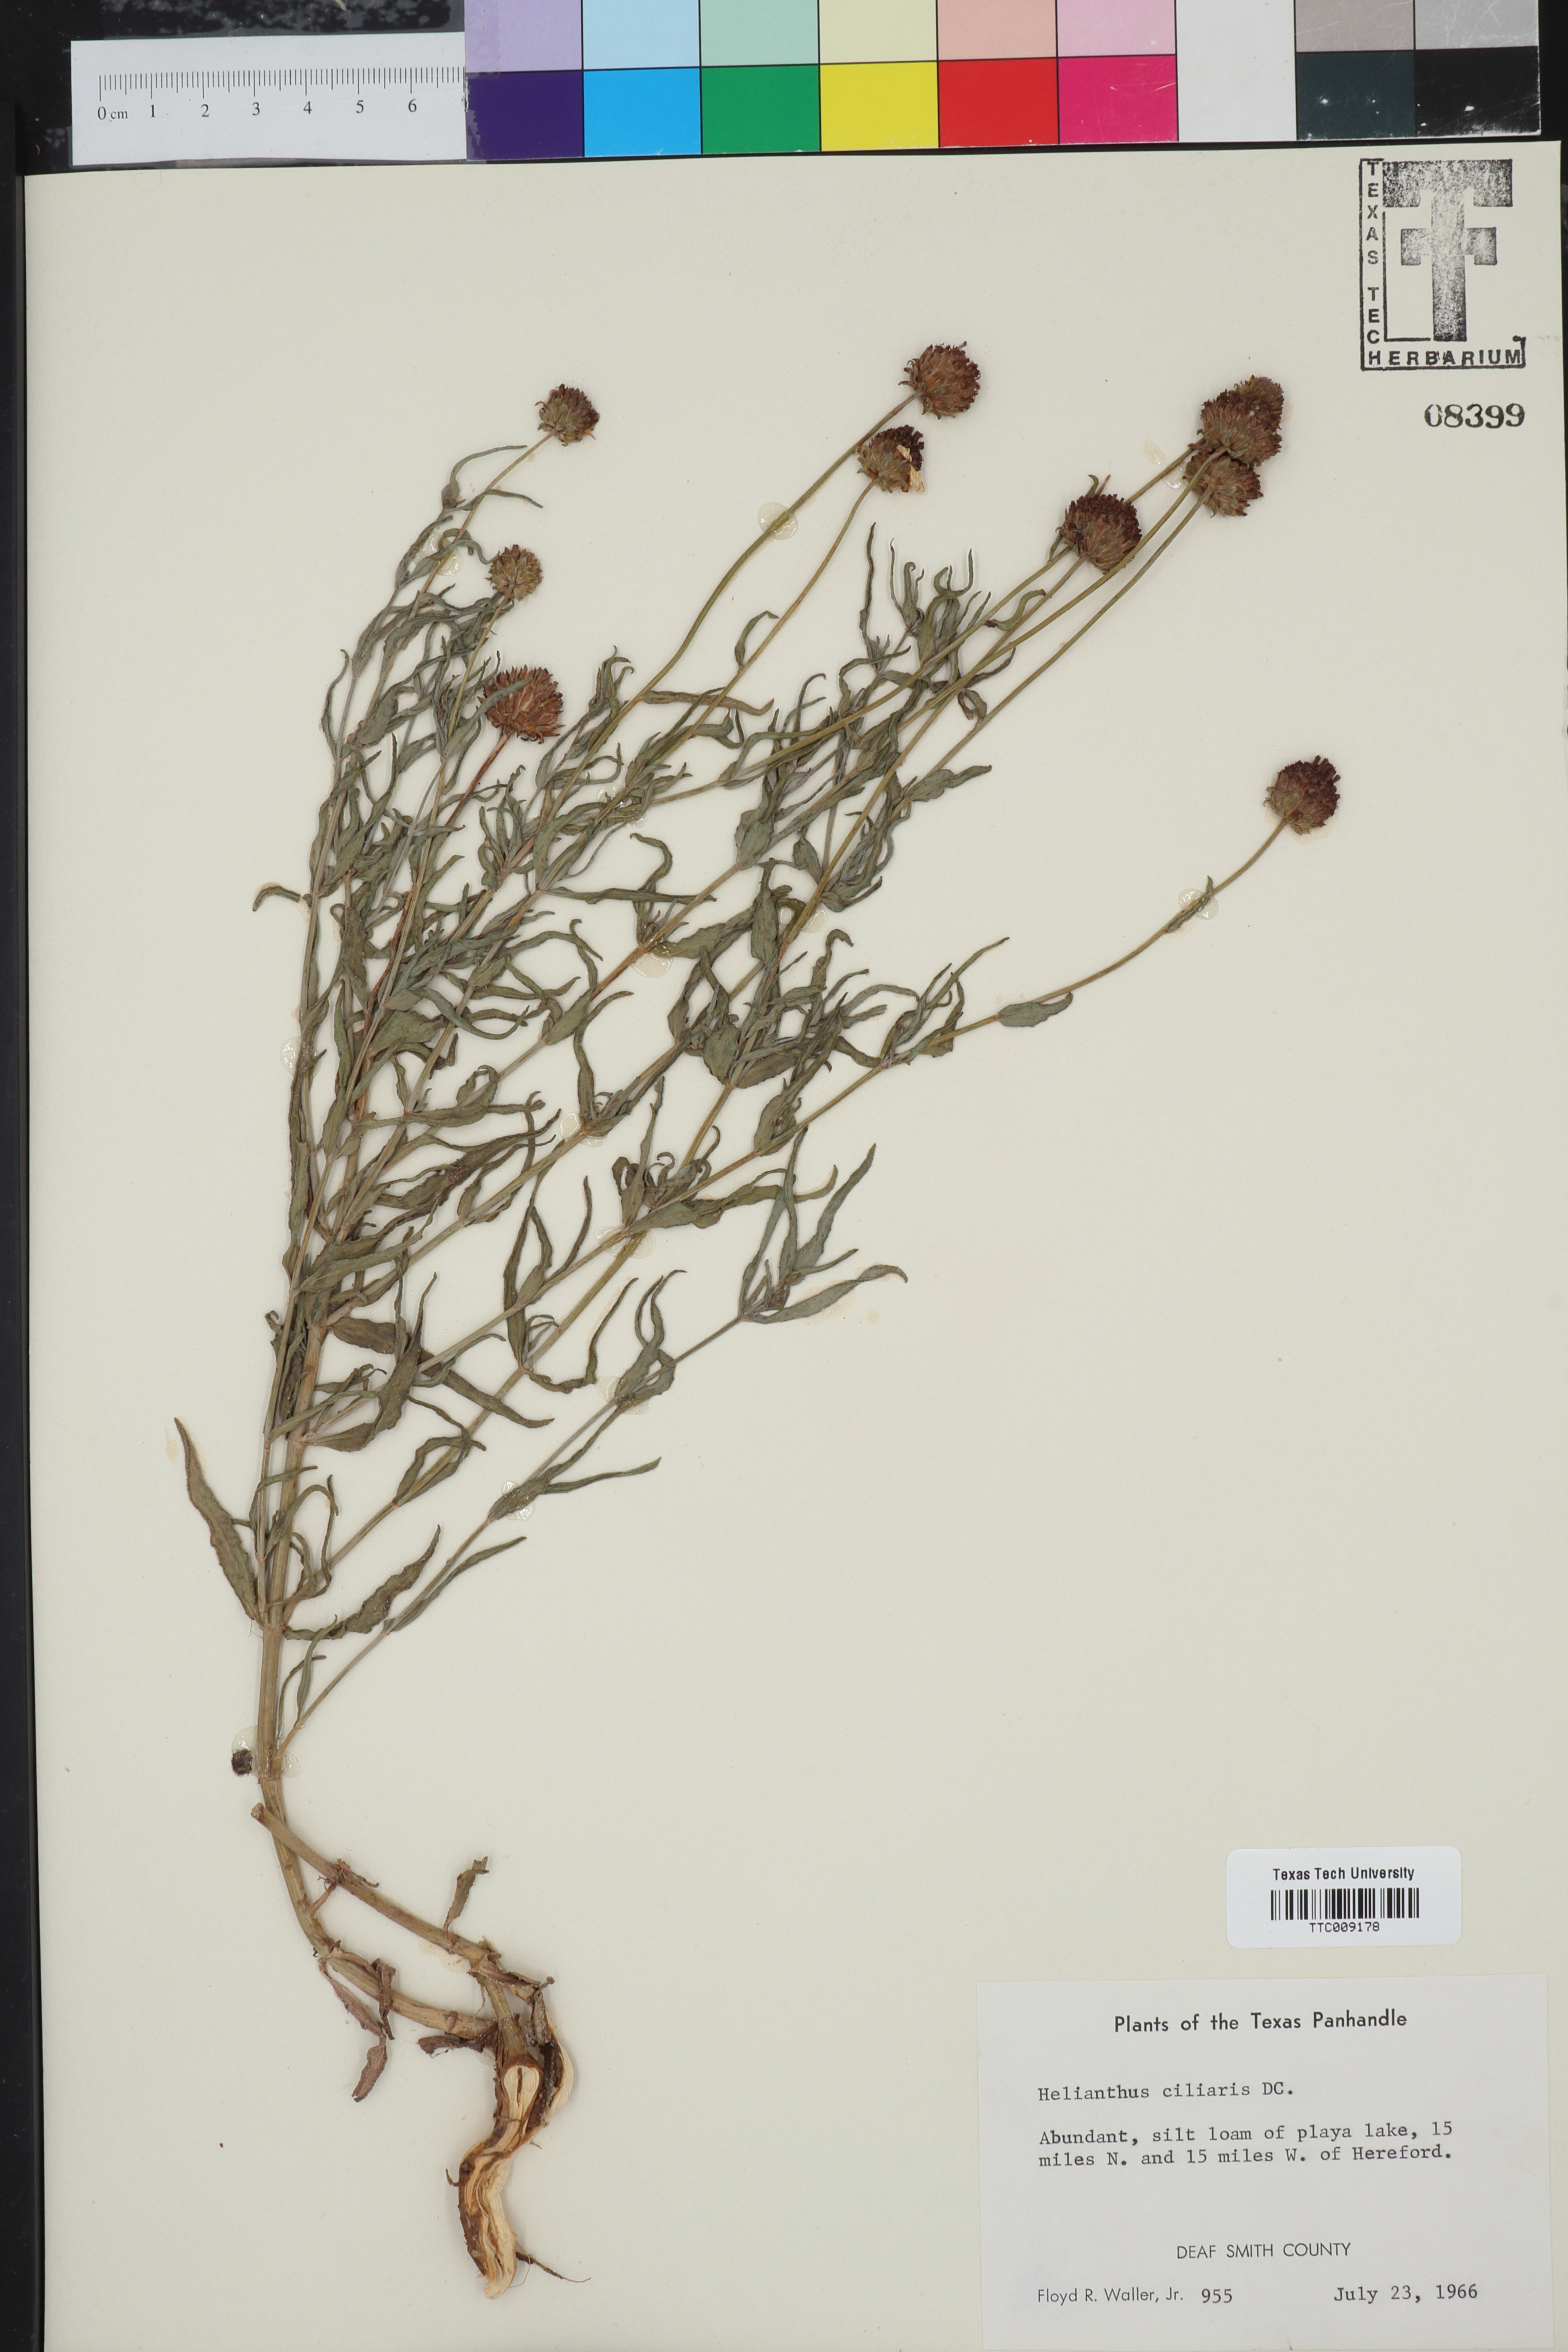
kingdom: Plantae
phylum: Tracheophyta
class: Magnoliopsida
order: Asterales
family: Asteraceae
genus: Helianthus
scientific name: Helianthus ciliaris
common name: Texas blueweed
